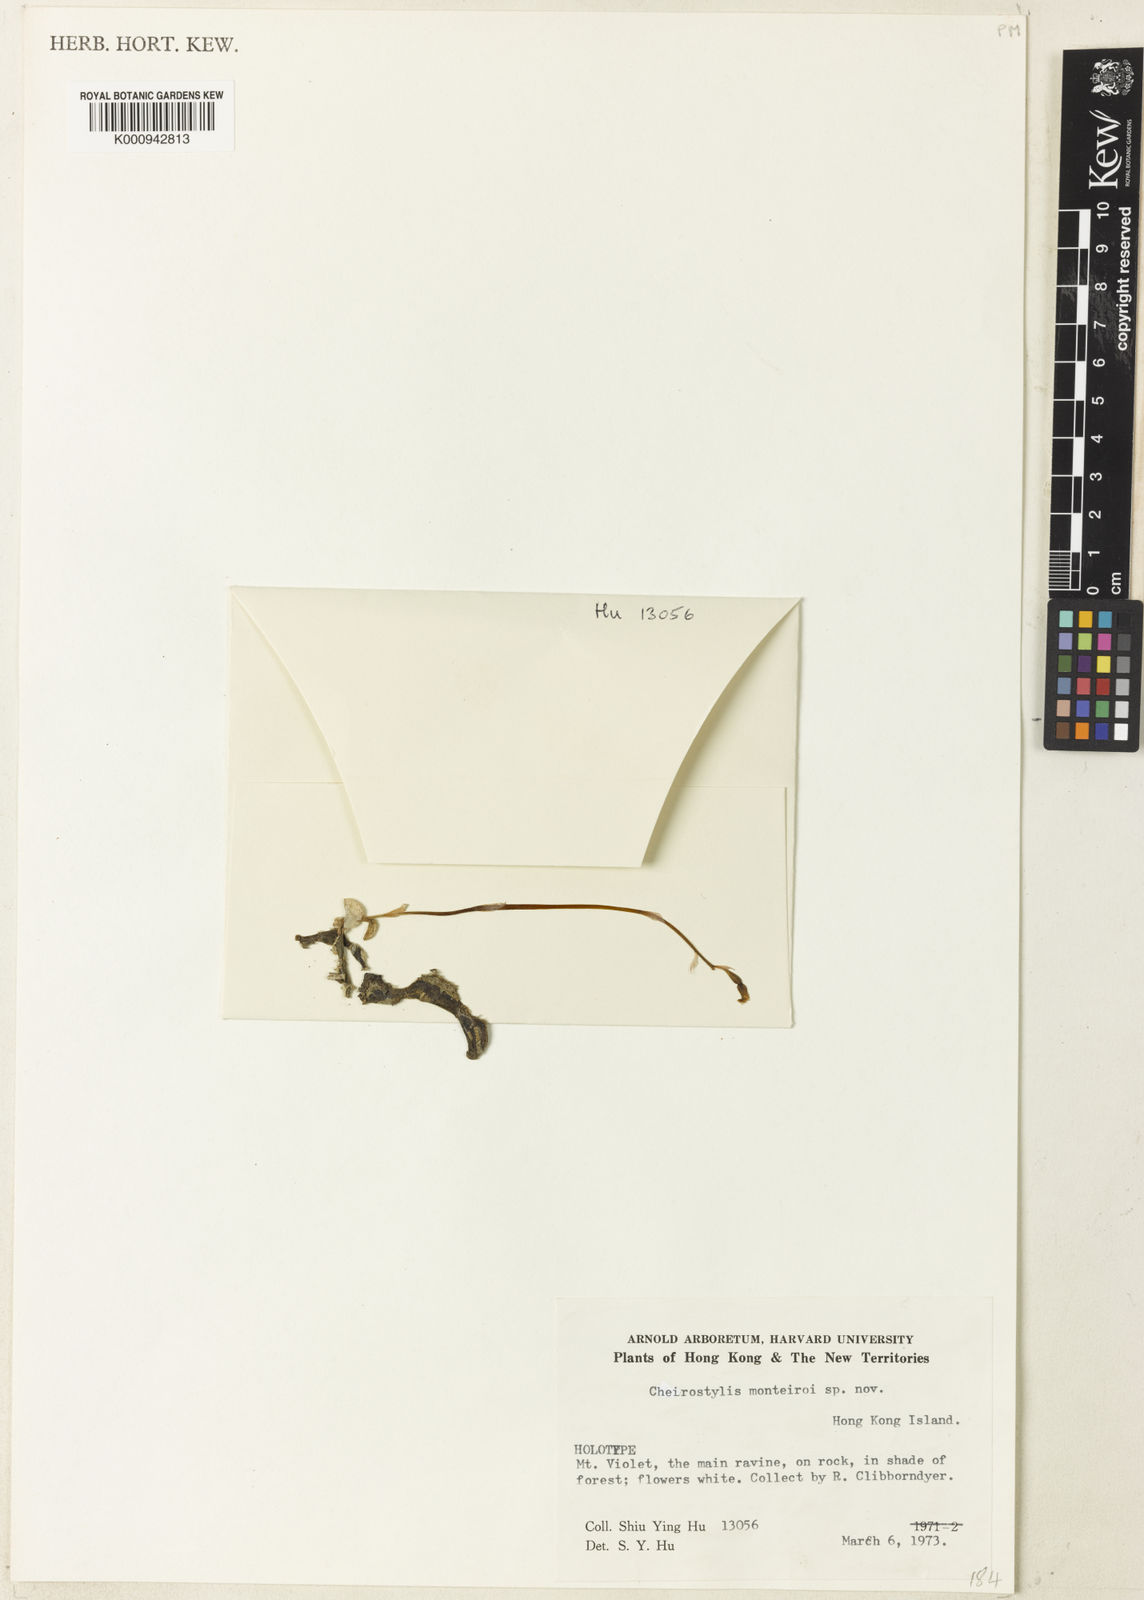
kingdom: Plantae
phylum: Tracheophyta
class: Liliopsida
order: Asparagales
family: Orchidaceae
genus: Cheirostylis
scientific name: Cheirostylis monteiroi
